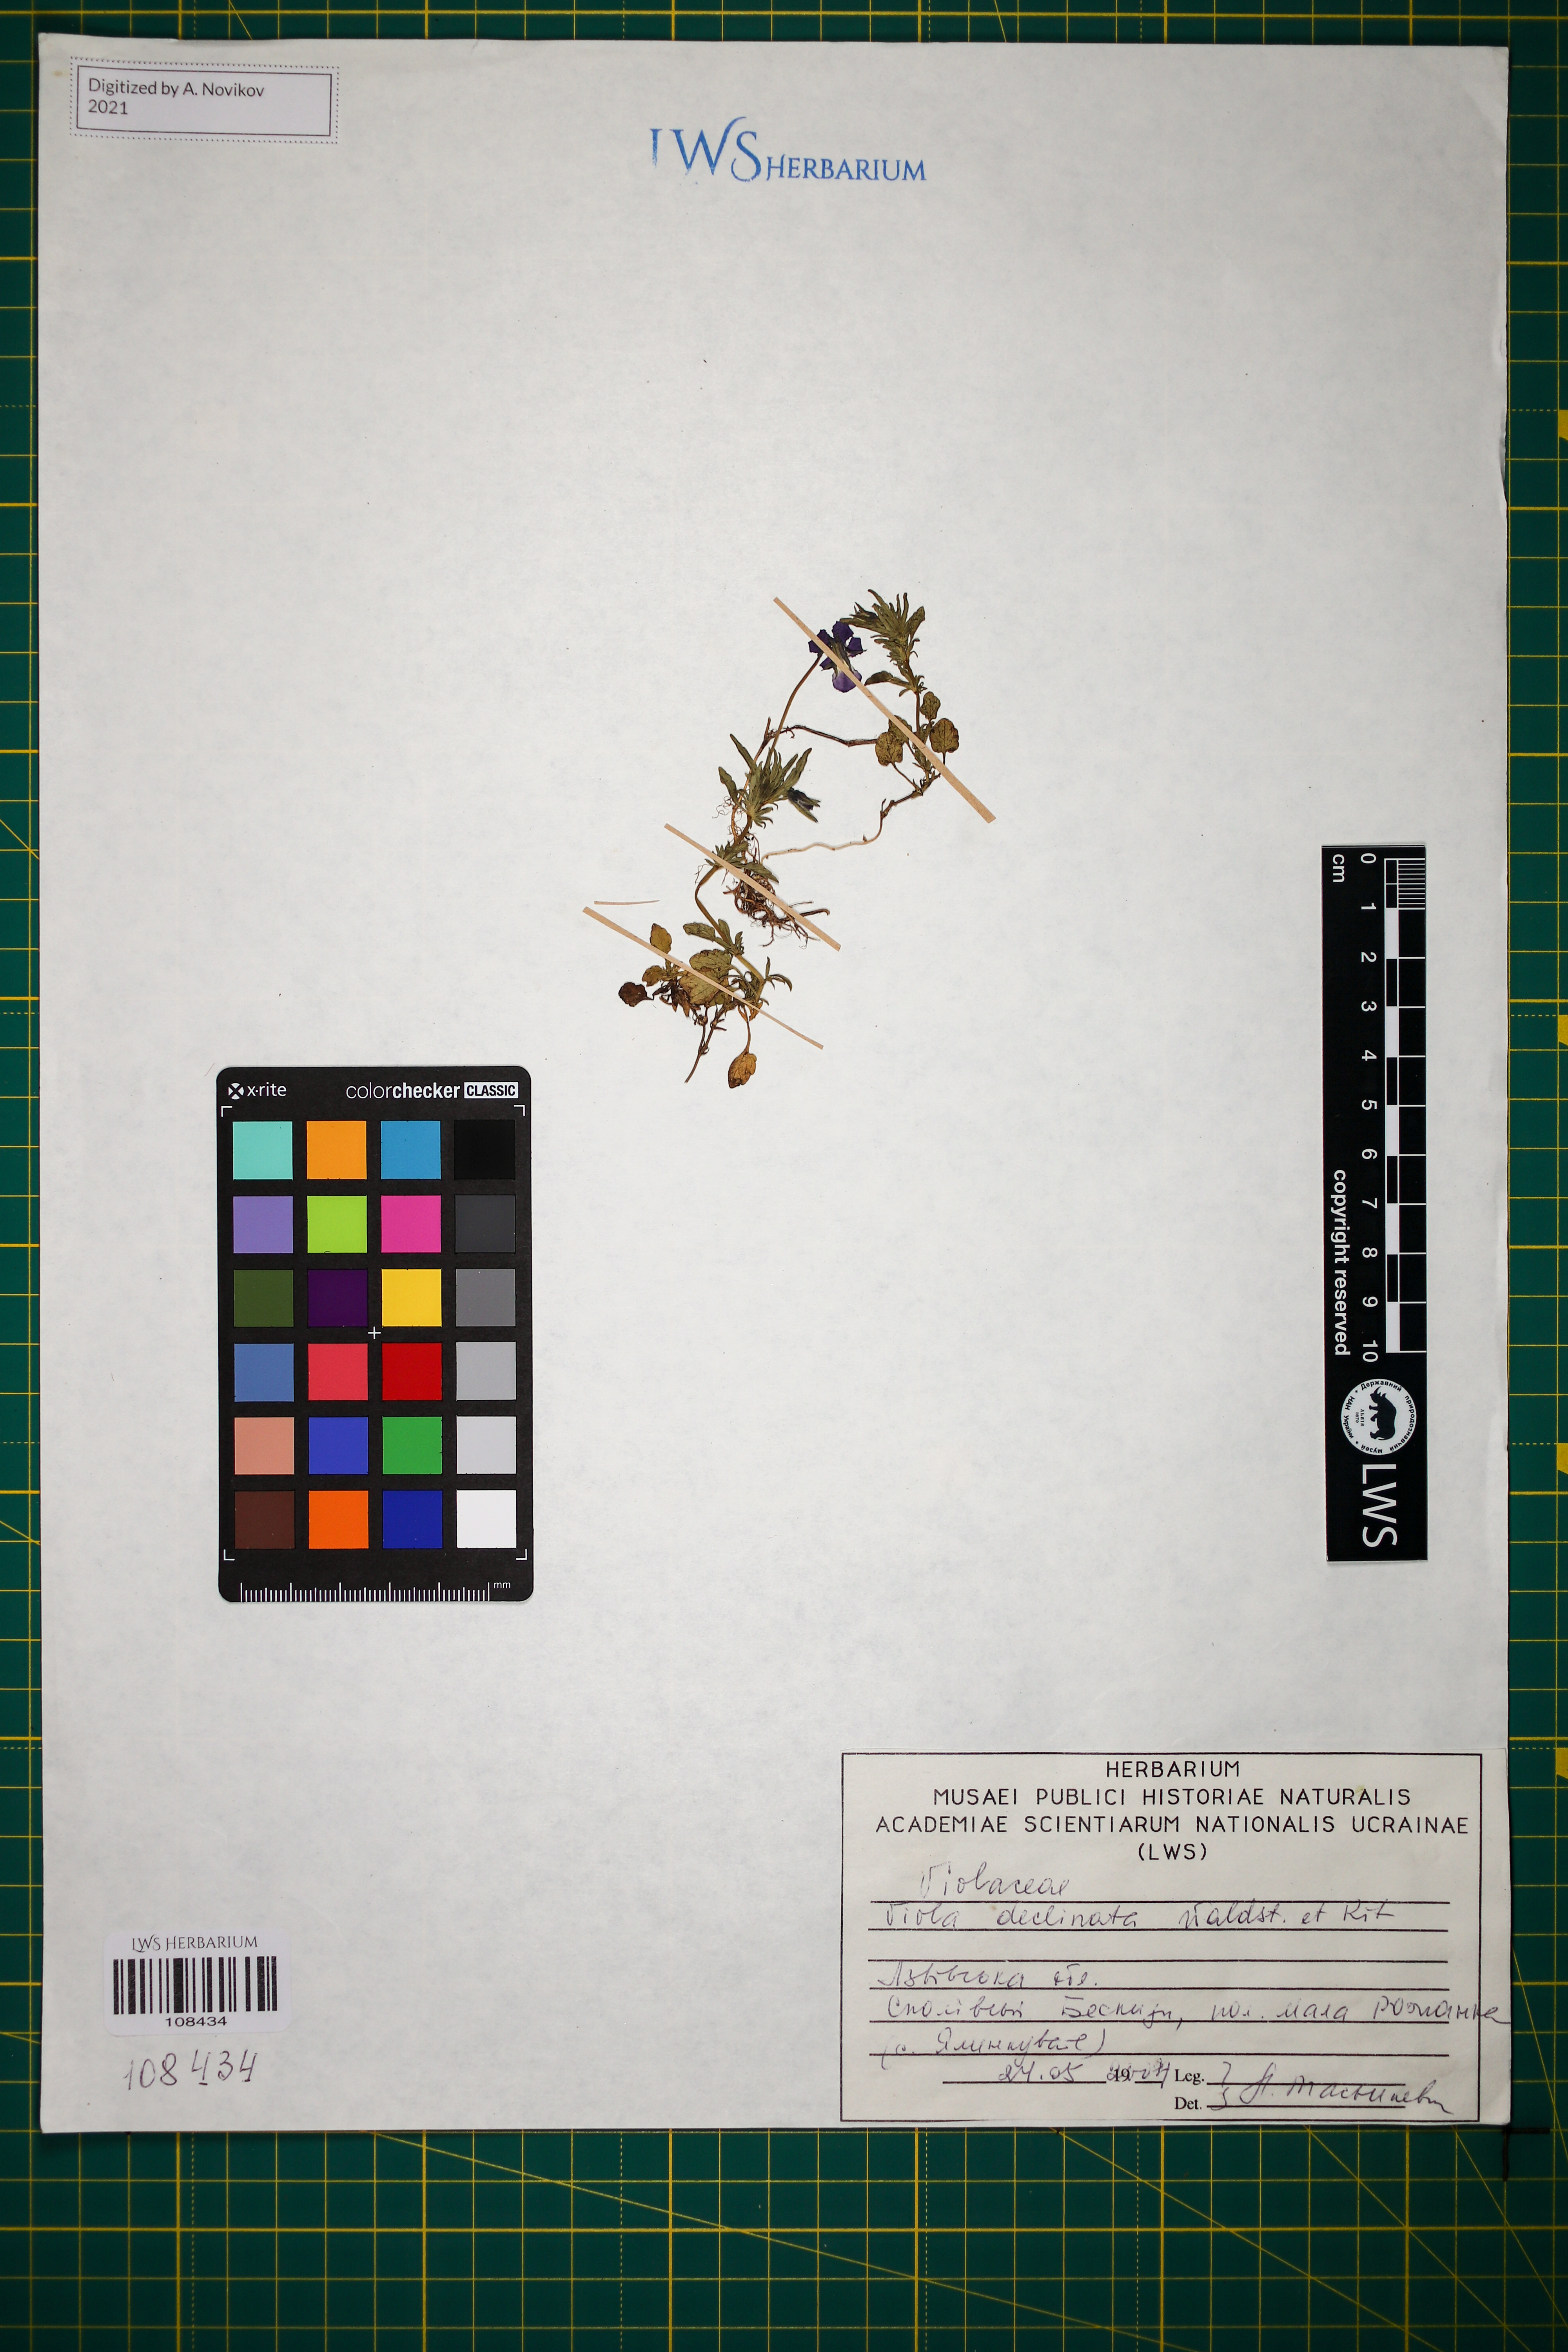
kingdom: Plantae
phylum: Tracheophyta
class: Magnoliopsida
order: Malpighiales
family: Violaceae
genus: Viola
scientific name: Viola declinata
